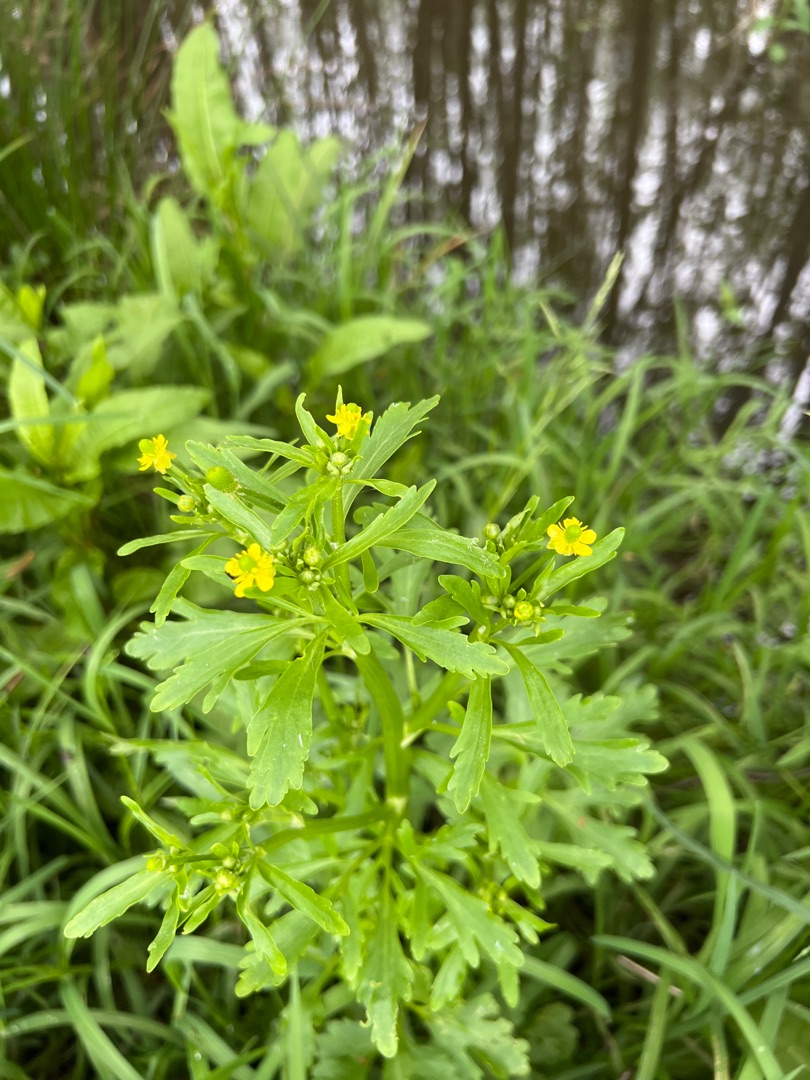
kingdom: Plantae
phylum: Tracheophyta
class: Magnoliopsida
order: Ranunculales
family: Ranunculaceae
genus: Ranunculus
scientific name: Ranunculus sceleratus
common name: Tigger-ranunkel
